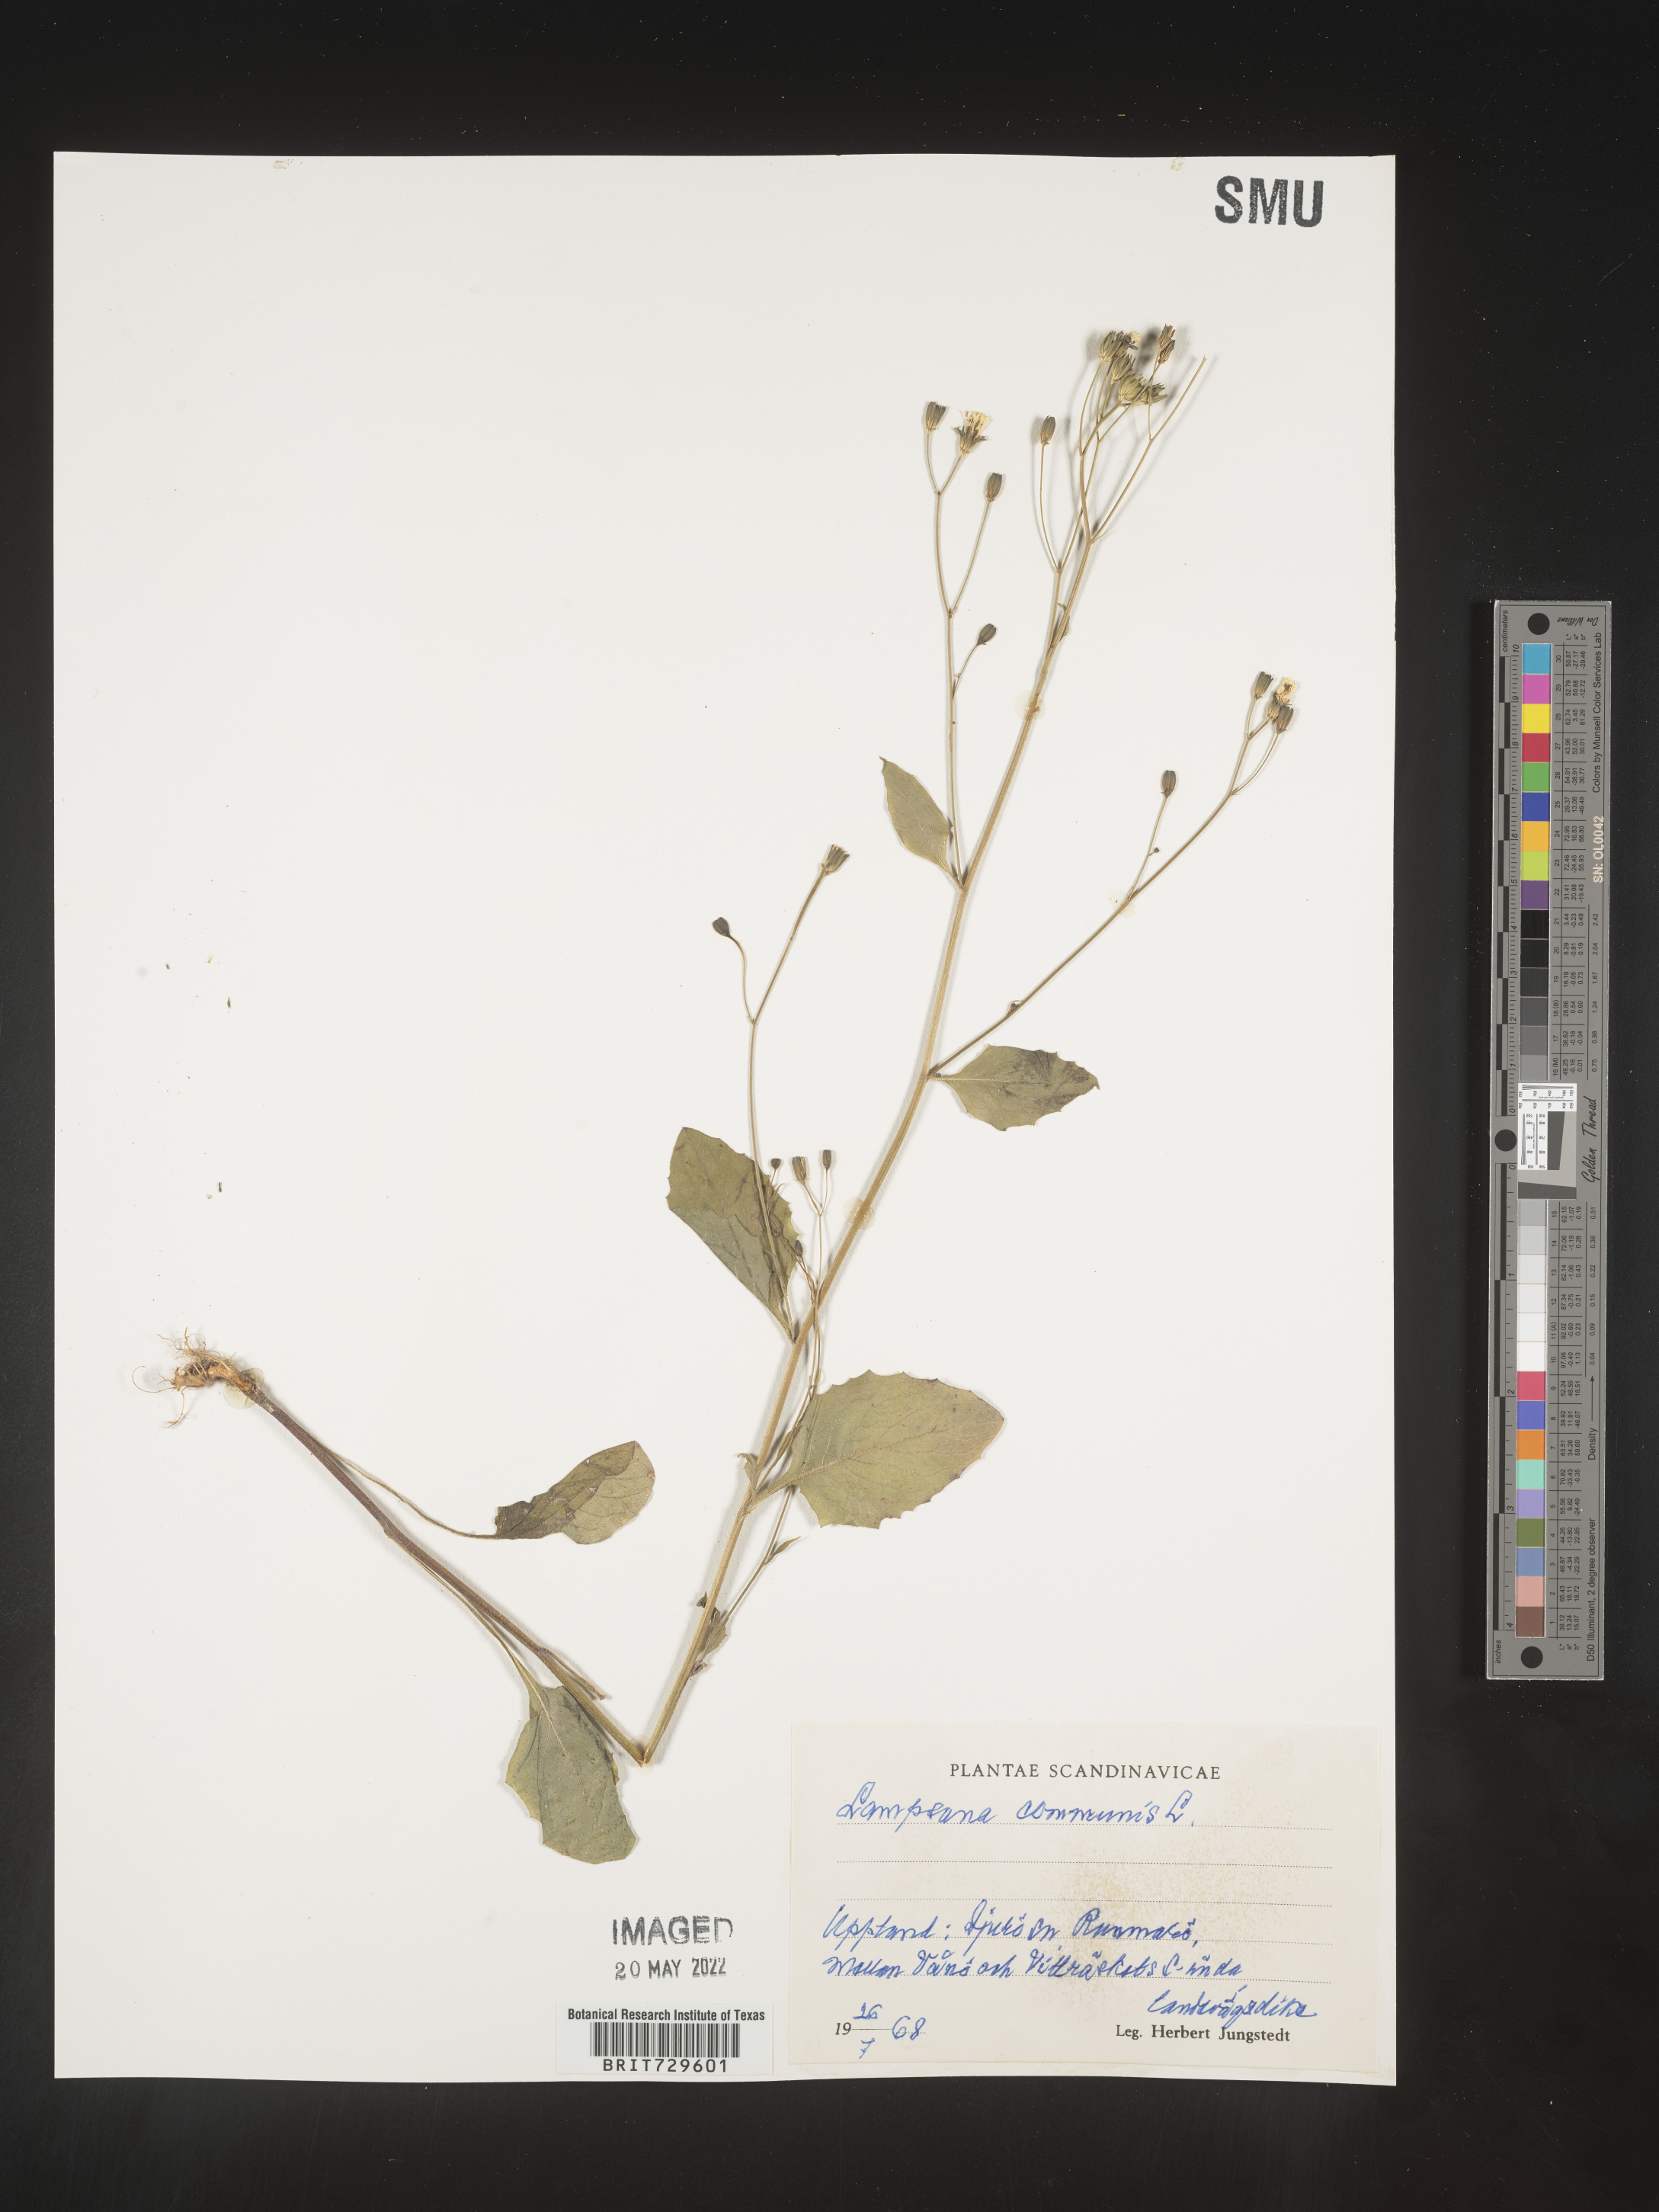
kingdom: Plantae
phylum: Tracheophyta
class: Magnoliopsida
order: Asterales
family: Asteraceae
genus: Lapsana
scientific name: Lapsana
